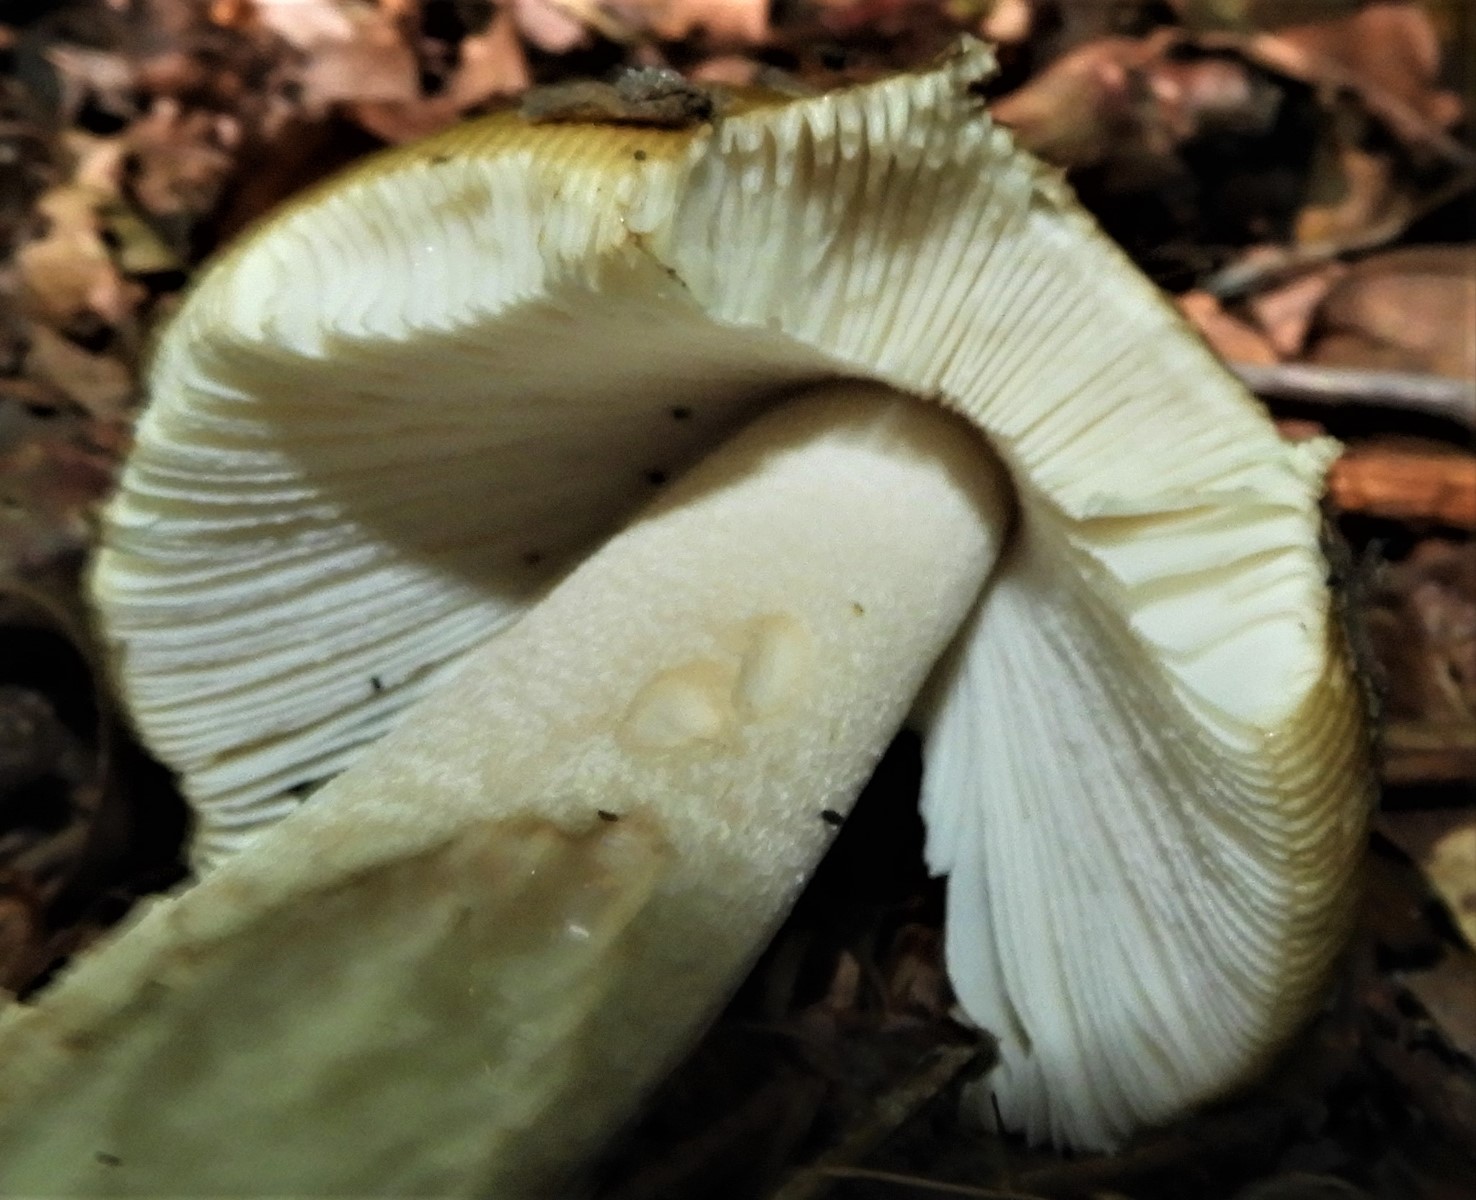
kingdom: Fungi
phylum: Basidiomycota
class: Agaricomycetes
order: Agaricales
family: Amanitaceae
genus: Amanita
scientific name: Amanita ceciliae
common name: stor kam-fluesvamp
